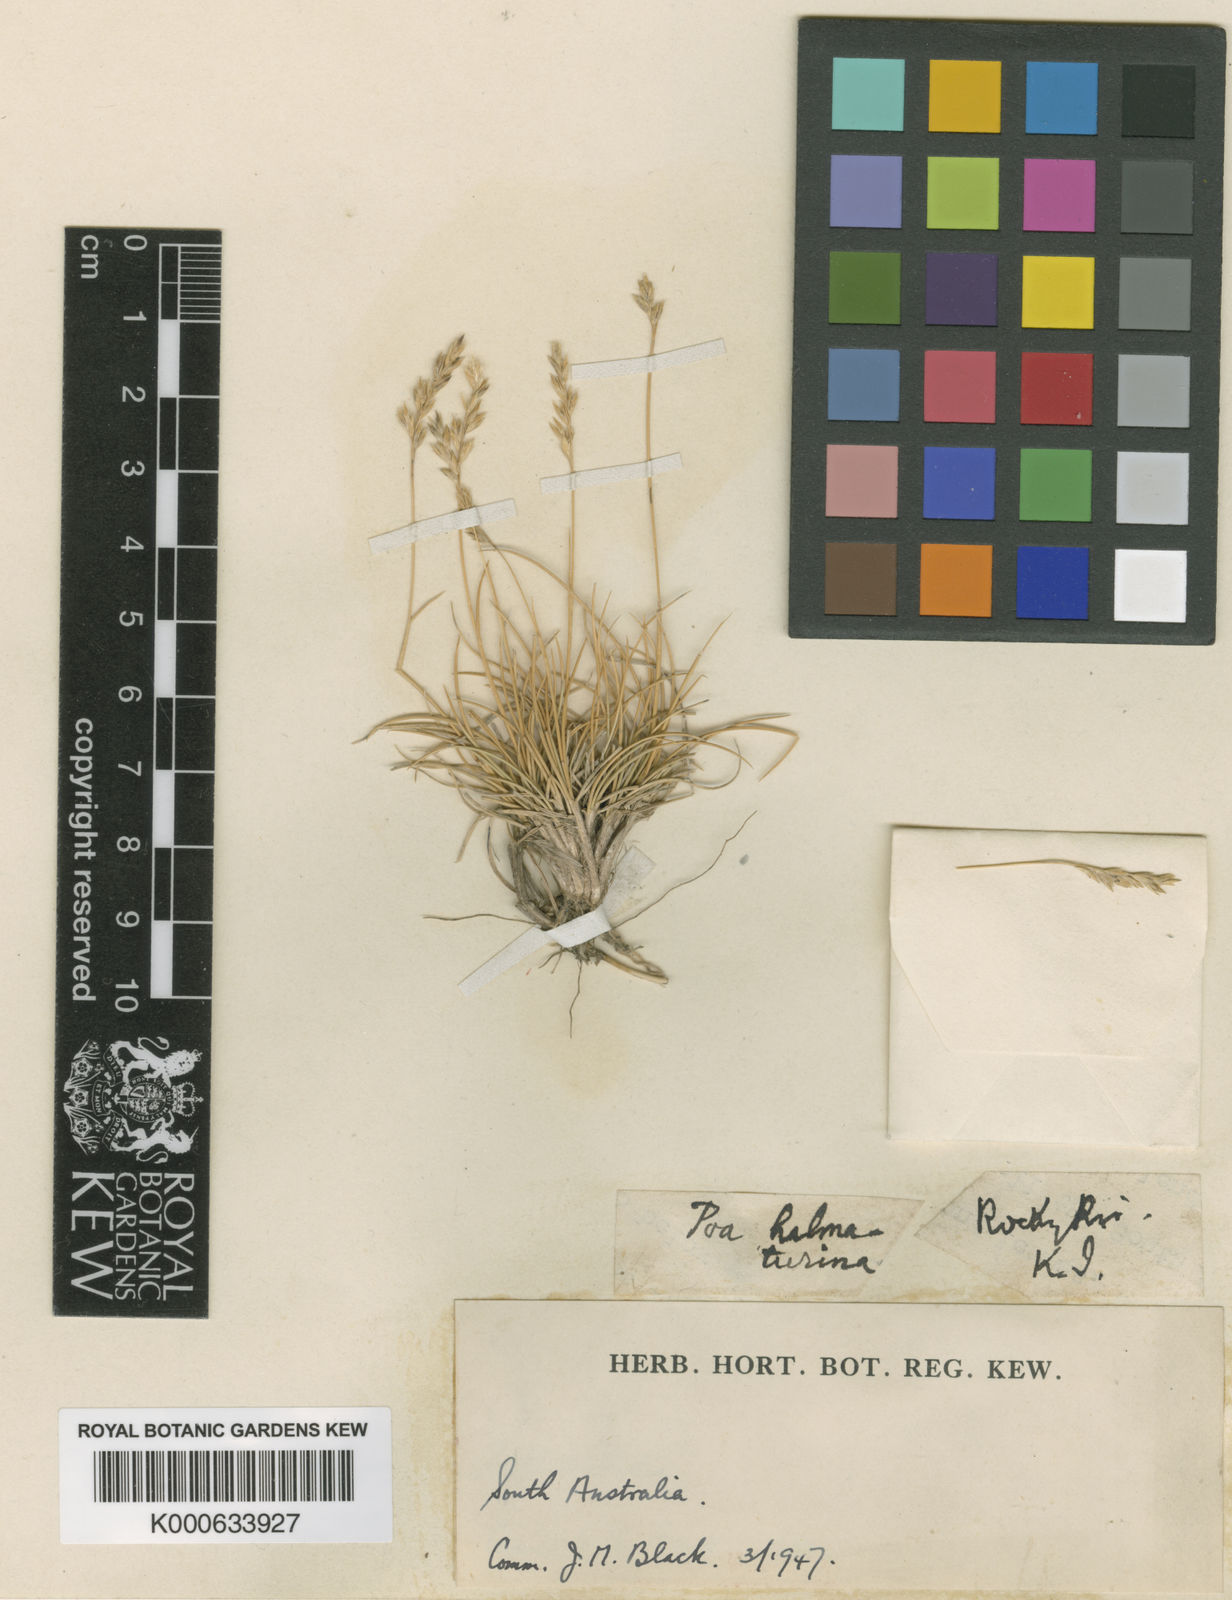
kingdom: Plantae
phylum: Tracheophyta
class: Liliopsida
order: Poales
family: Poaceae
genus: Poa
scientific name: Poa halmaturina
